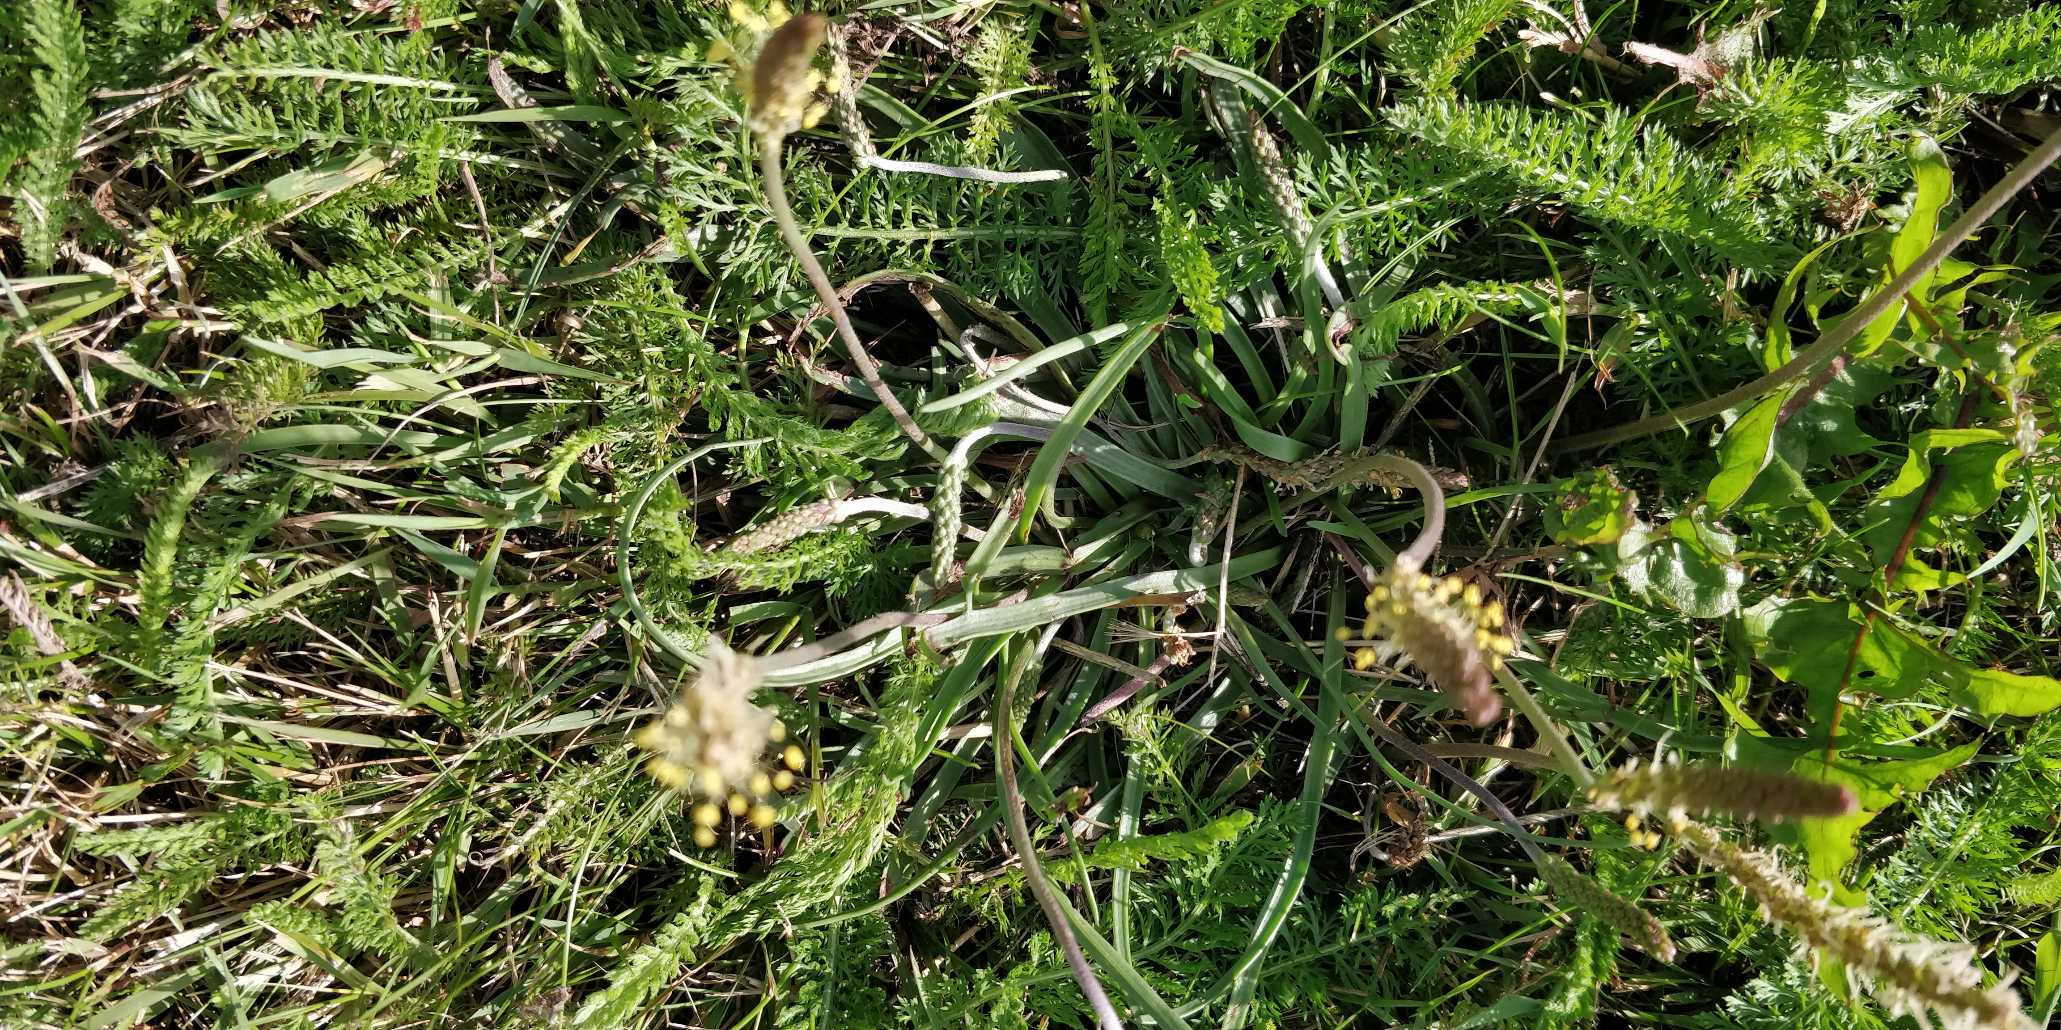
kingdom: Plantae
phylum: Tracheophyta
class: Magnoliopsida
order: Lamiales
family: Plantaginaceae
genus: Plantago
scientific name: Plantago maritima
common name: Strand-vejbred
